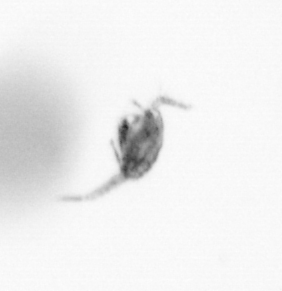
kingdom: Animalia
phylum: Arthropoda
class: Copepoda
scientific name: Copepoda
